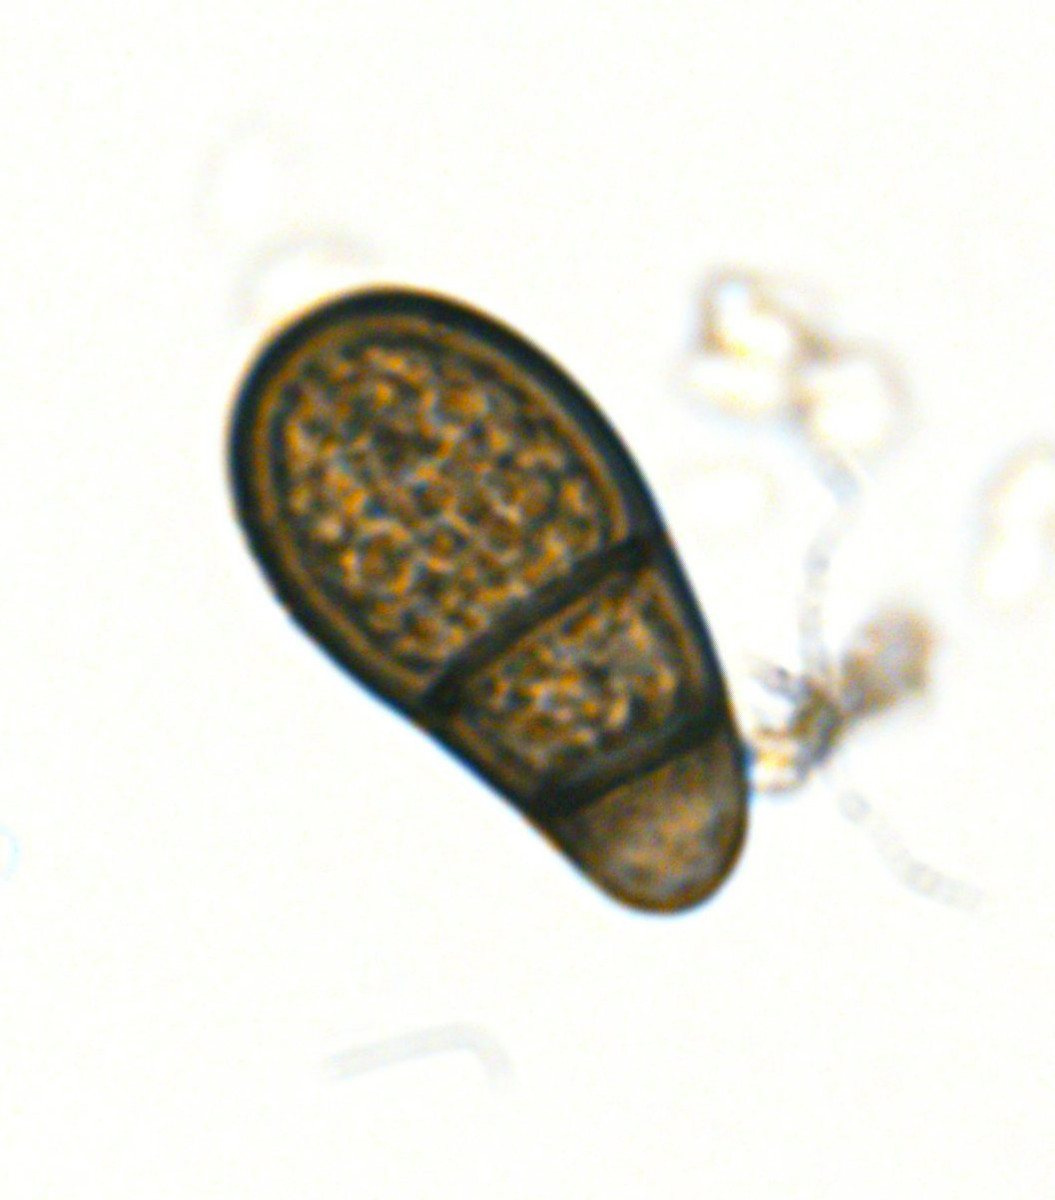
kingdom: Fungi
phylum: Ascomycota
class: Dothideomycetes
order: Pleosporales
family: Neohendersoniaceae
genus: Neohendersonia
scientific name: Neohendersonia kickxii
